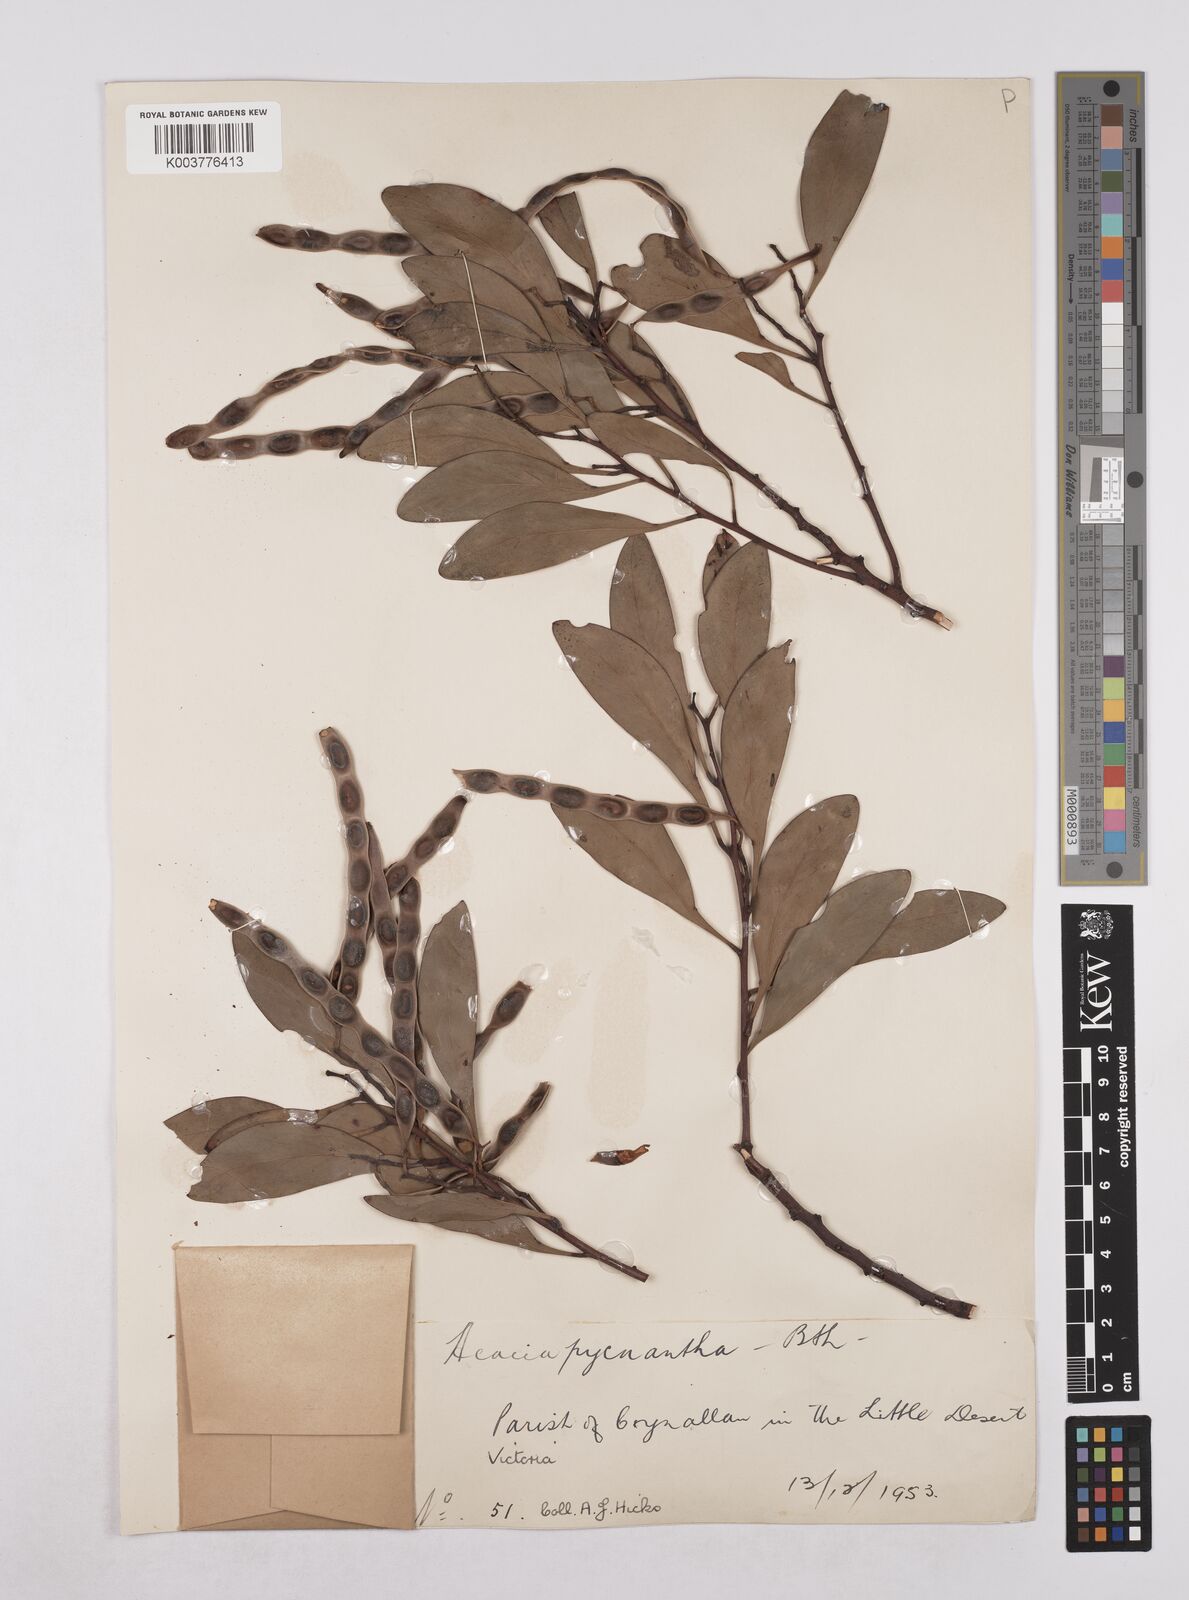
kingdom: Plantae
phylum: Tracheophyta
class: Magnoliopsida
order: Fabales
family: Fabaceae
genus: Acacia
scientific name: Acacia pycnantha
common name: Golden wattle
